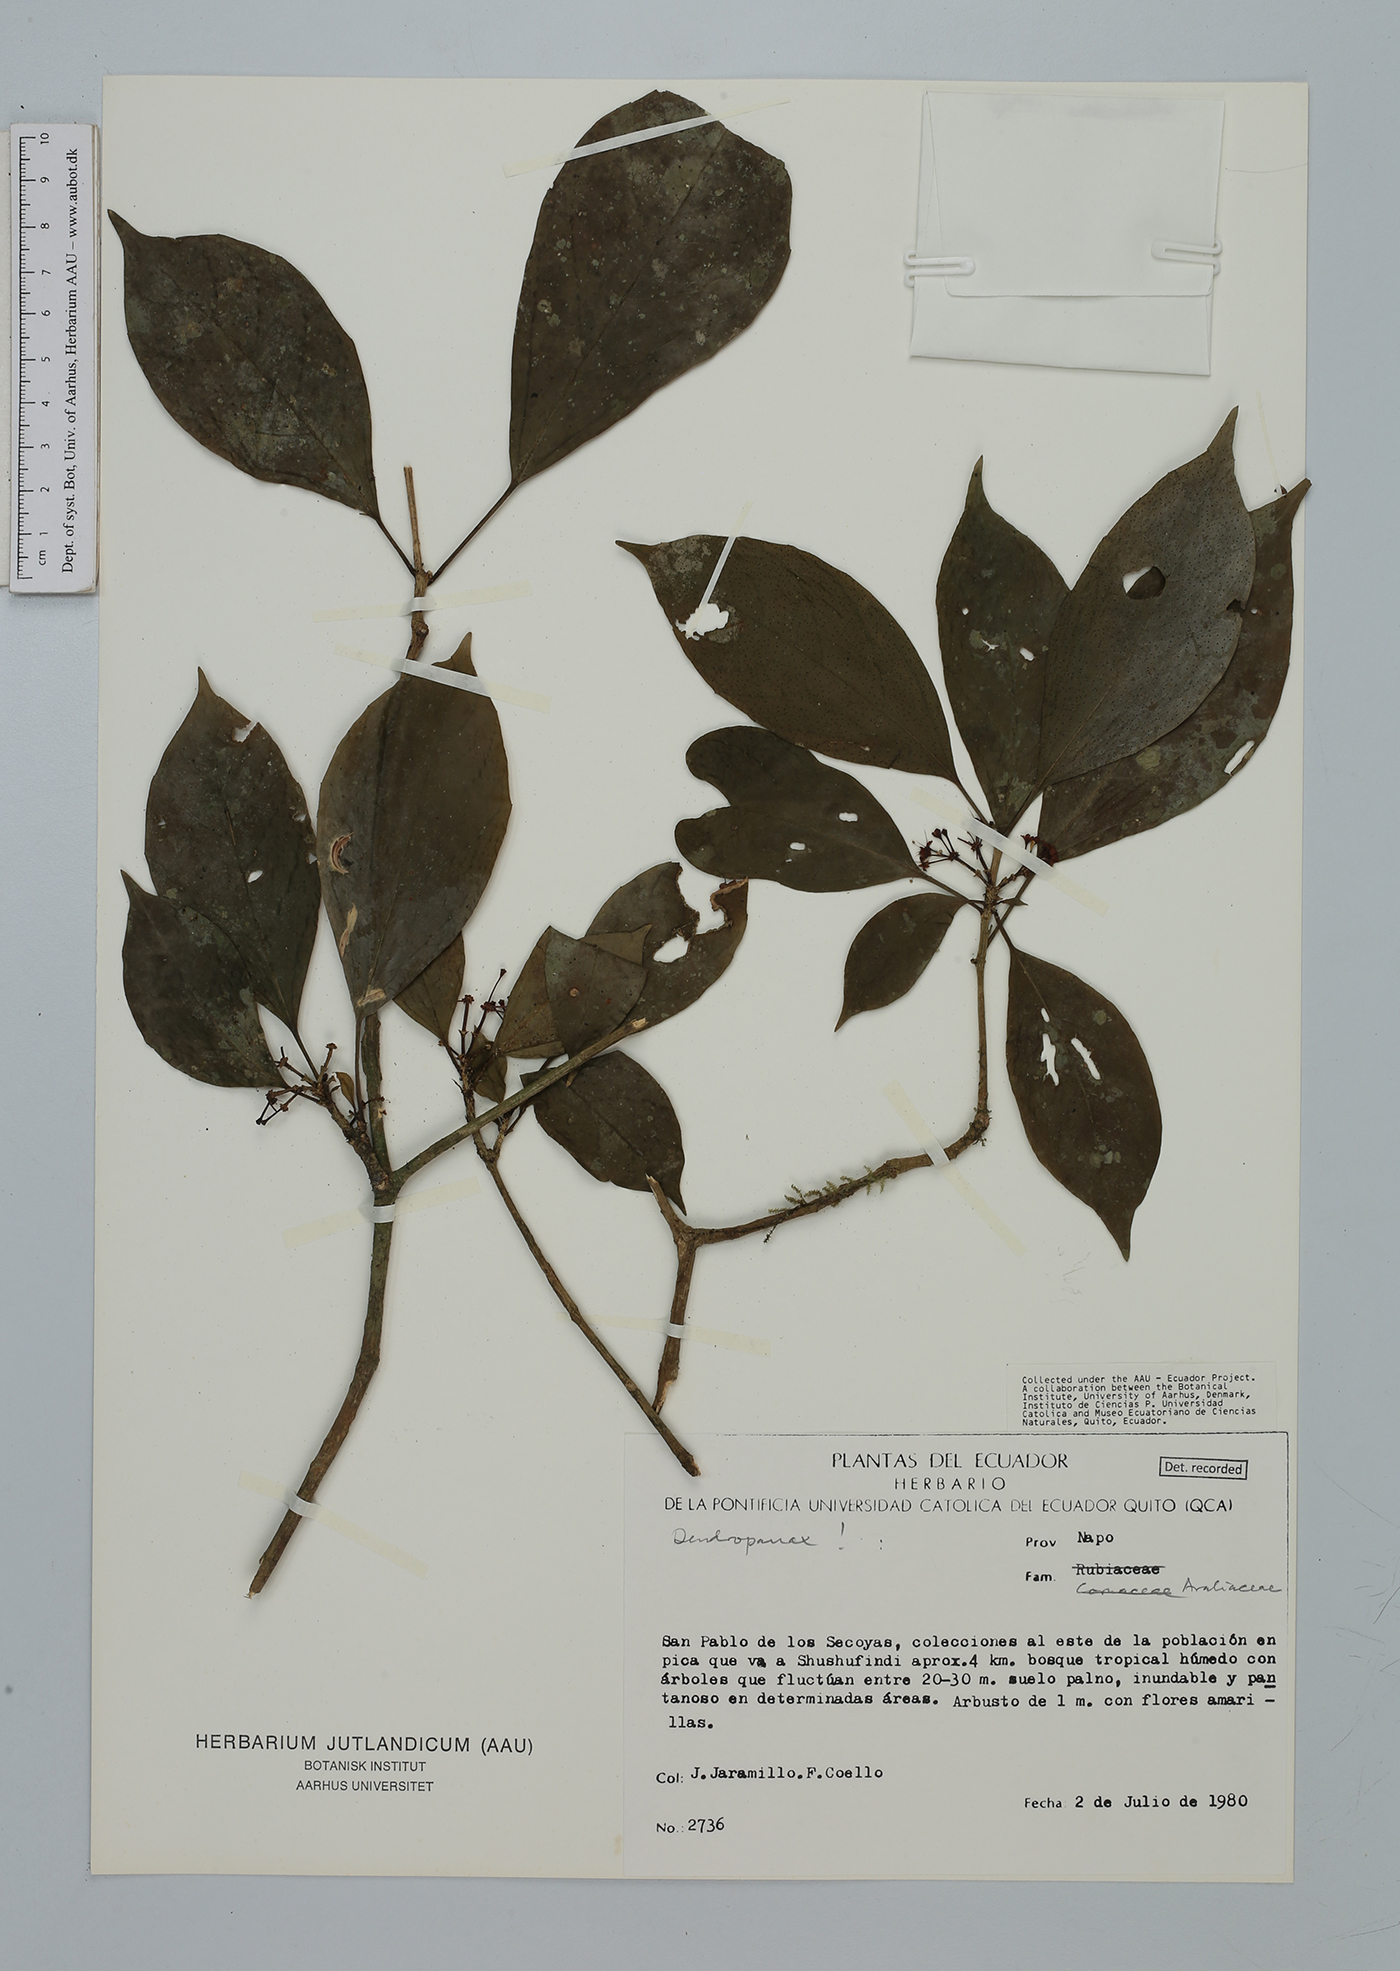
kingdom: Plantae
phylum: Tracheophyta
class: Magnoliopsida
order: Apiales
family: Araliaceae
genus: Dendropanax
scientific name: Dendropanax
